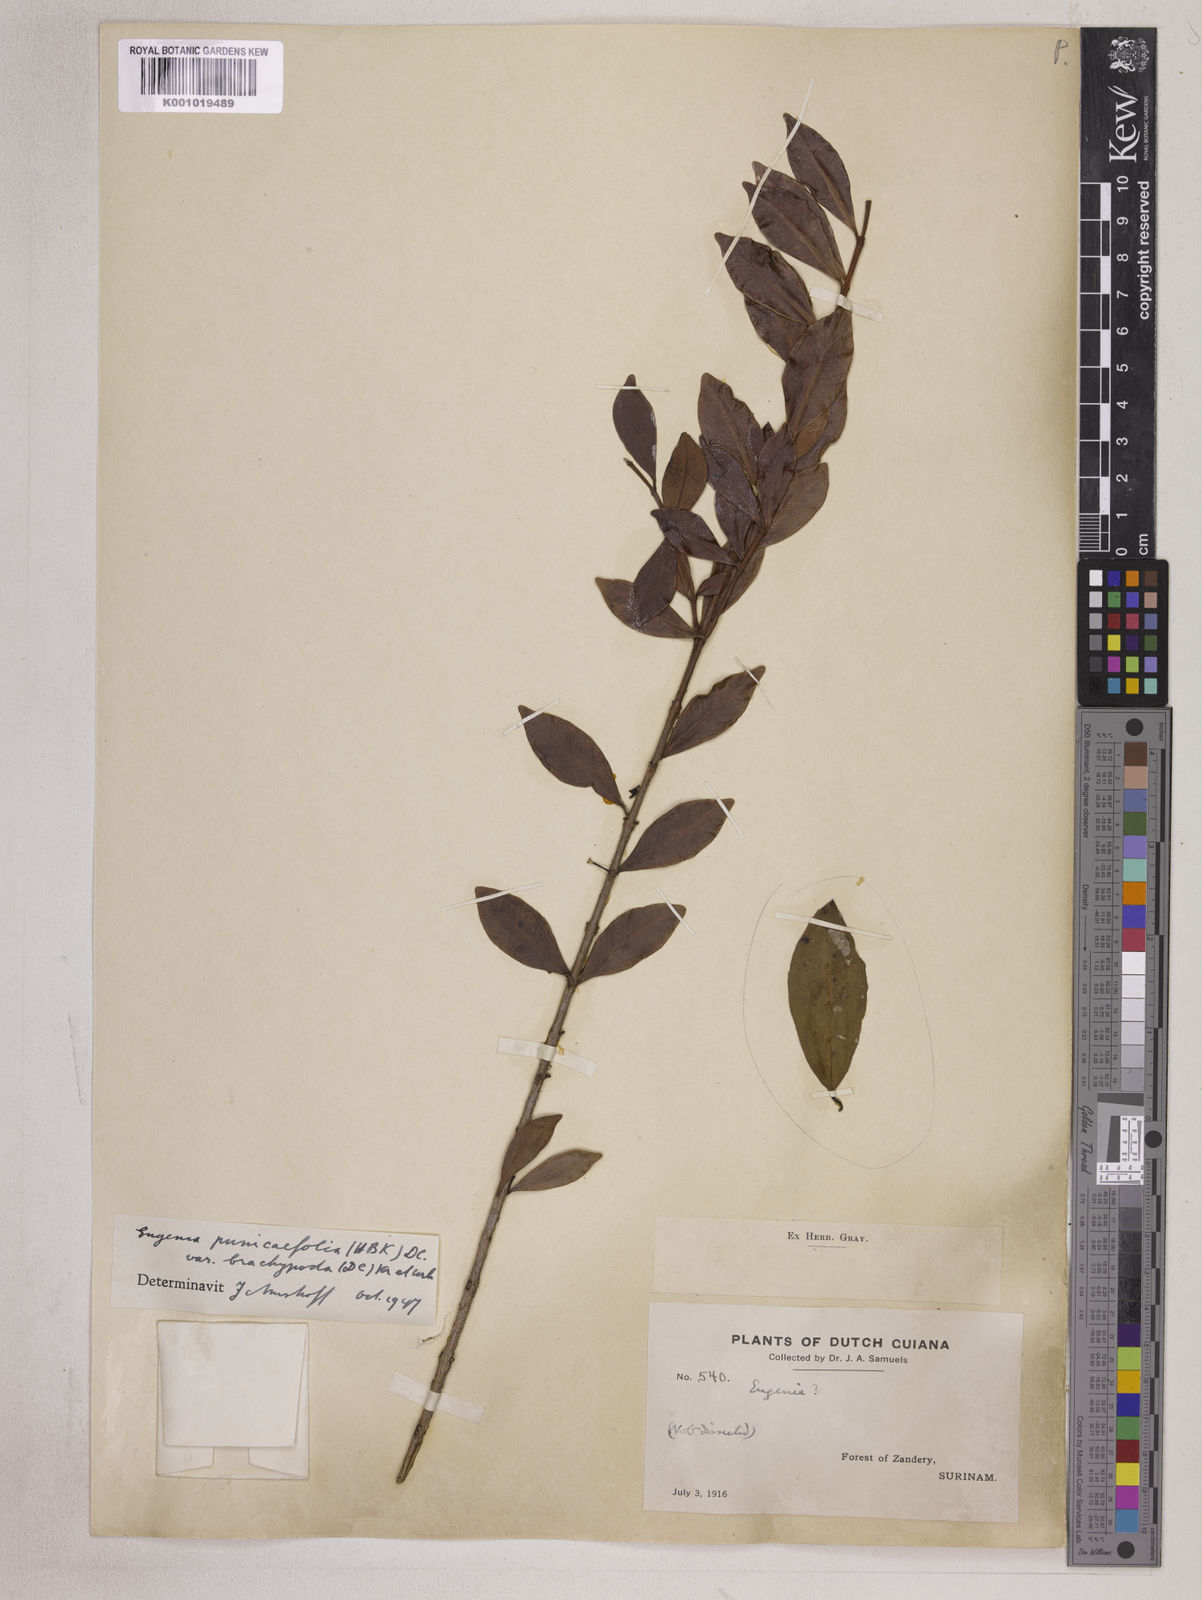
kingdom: Plantae
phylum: Tracheophyta
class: Magnoliopsida
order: Myrtales
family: Myrtaceae
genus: Eugenia
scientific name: Eugenia punicifolia
